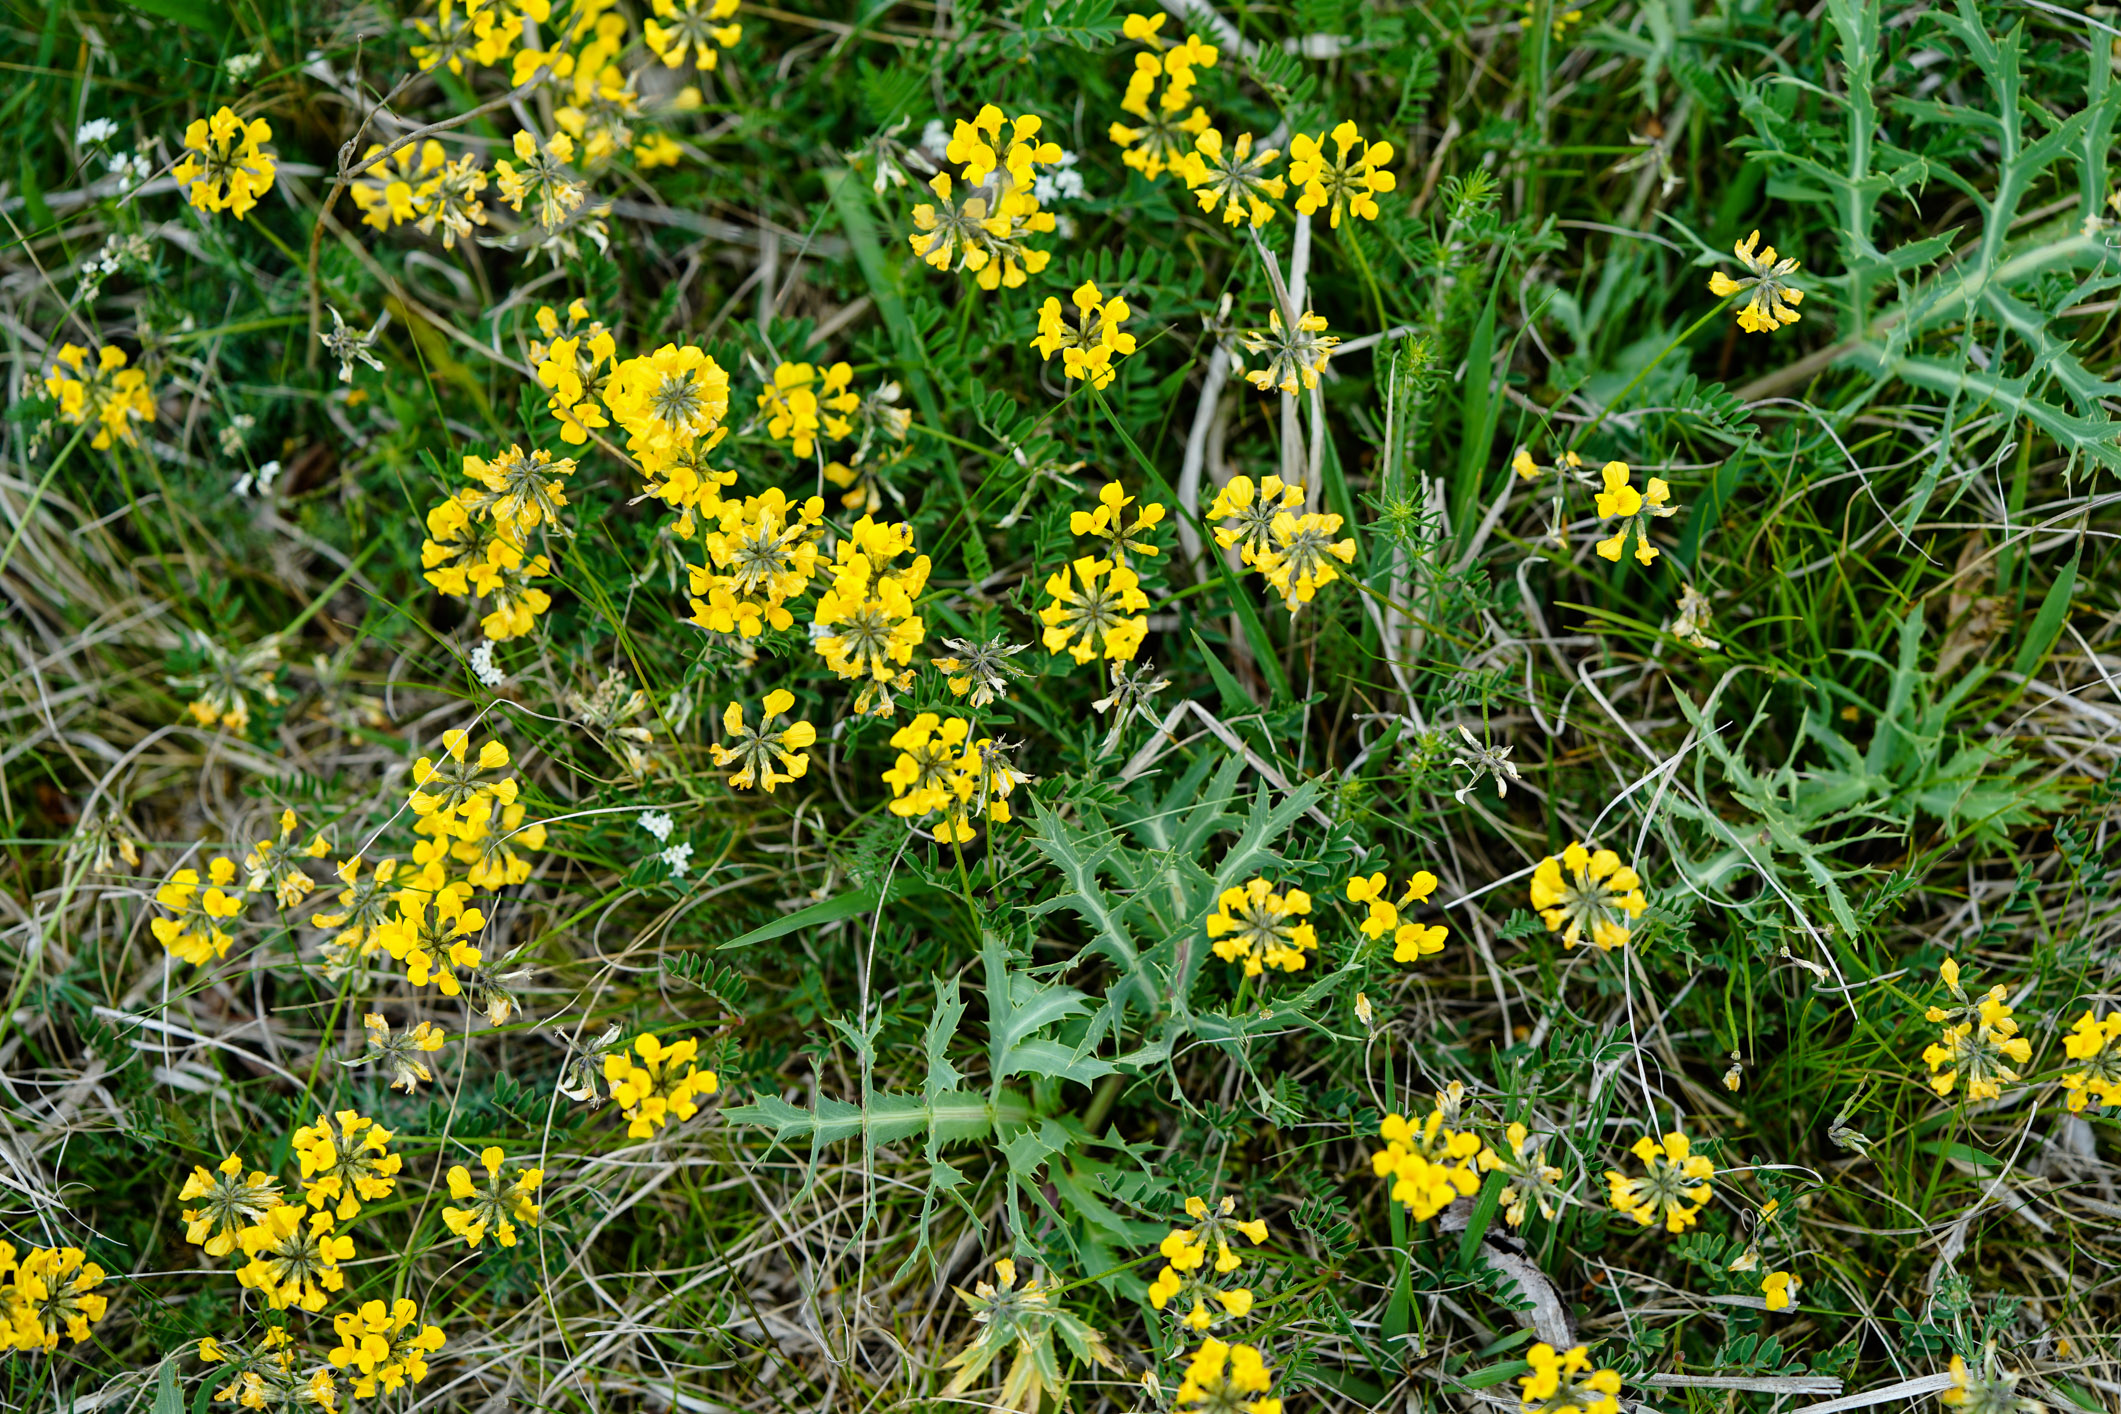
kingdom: Plantae
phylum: Tracheophyta
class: Magnoliopsida
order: Fabales
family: Fabaceae
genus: Hippocrepis
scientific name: Hippocrepis comosa
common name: Horseshoe vetch
